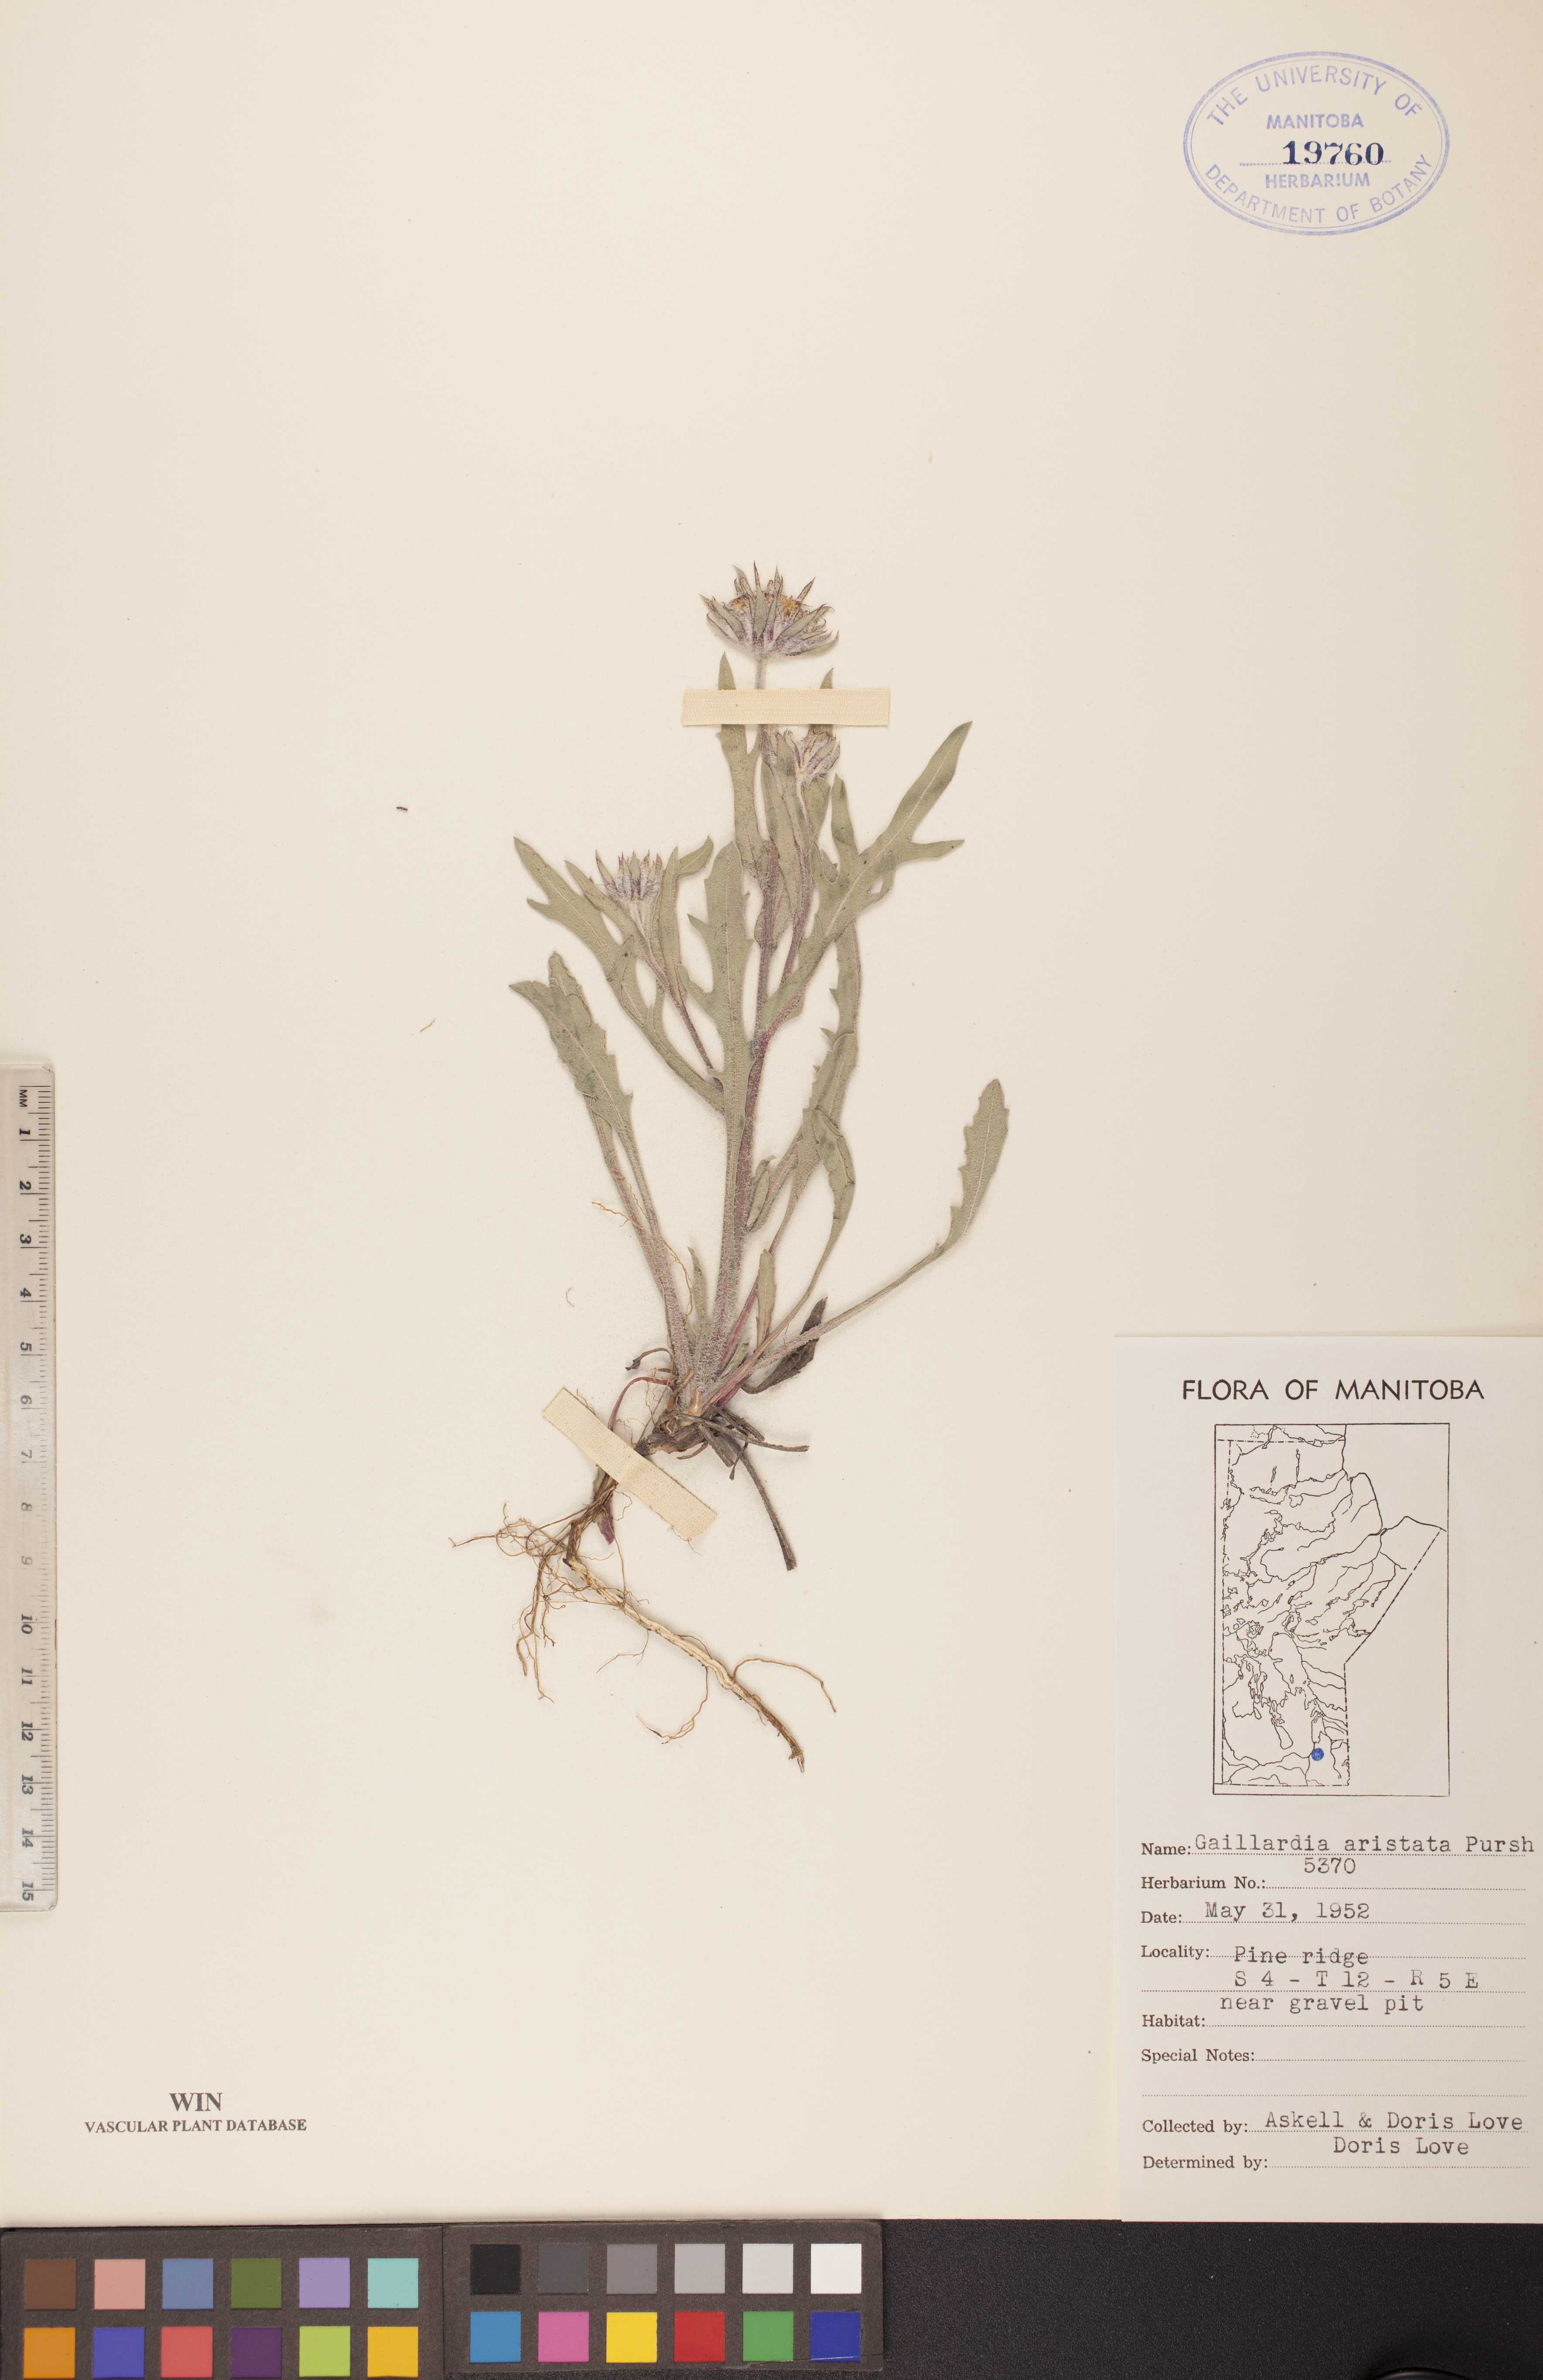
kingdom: Plantae
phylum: Tracheophyta
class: Magnoliopsida
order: Asterales
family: Asteraceae
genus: Gaillardia
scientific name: Gaillardia aristata
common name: Blanket-flower
